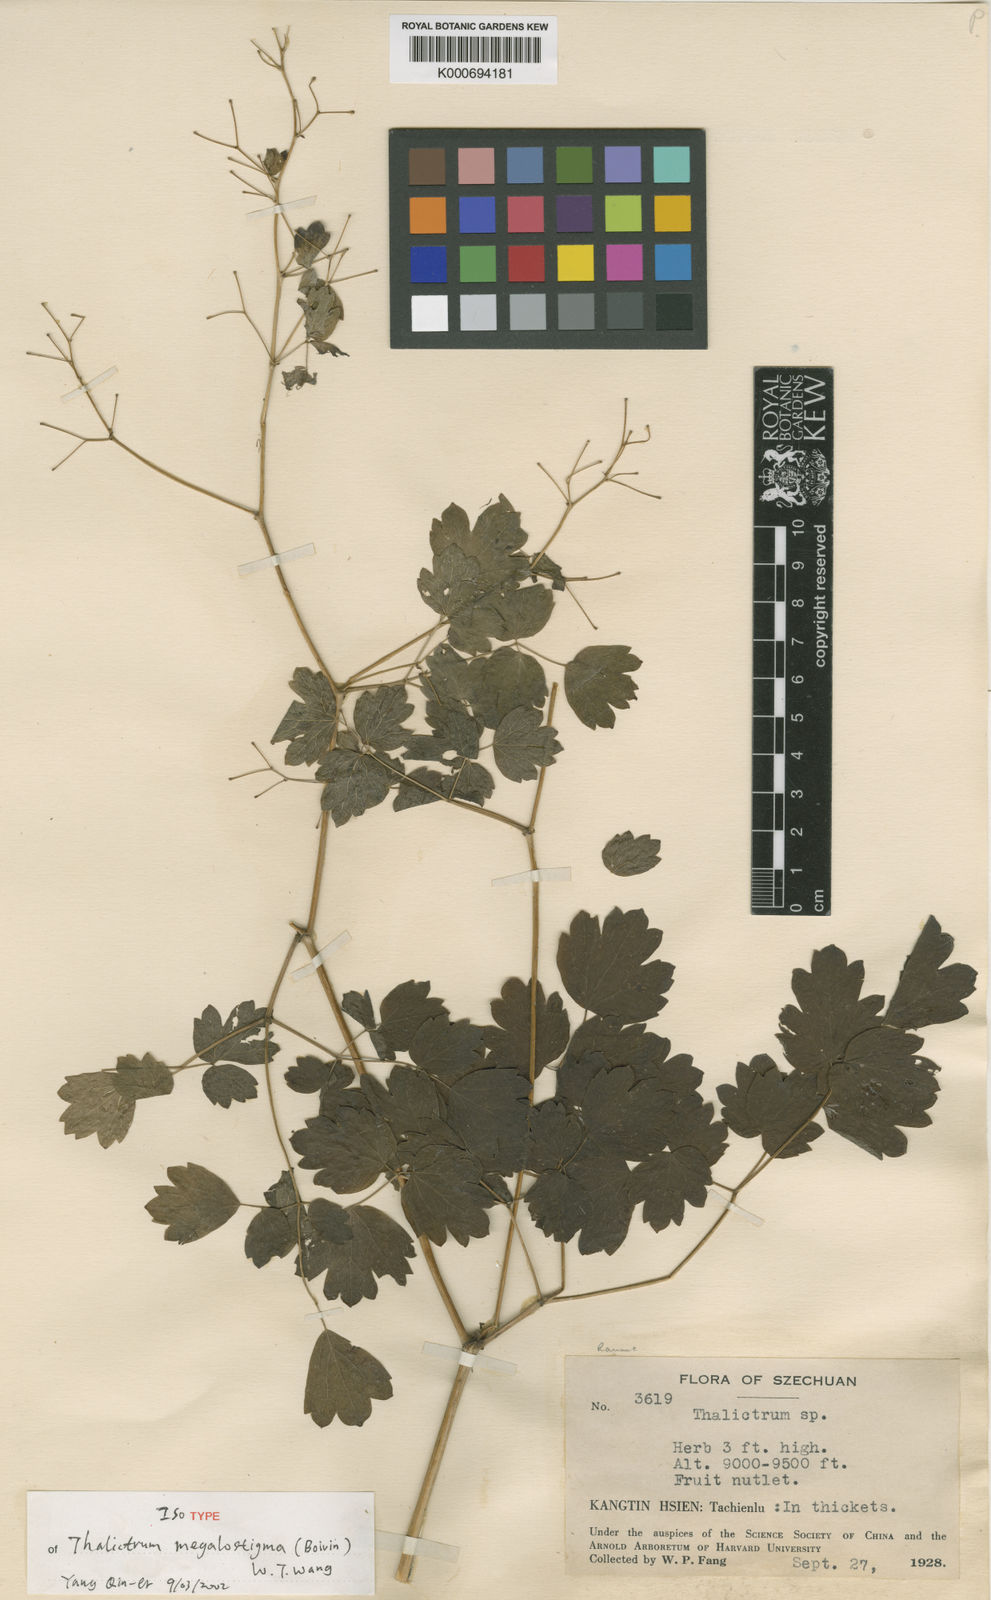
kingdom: Plantae
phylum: Tracheophyta
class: Magnoliopsida
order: Ranunculales
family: Ranunculaceae
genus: Thalictrum
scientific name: Thalictrum megalostigma
